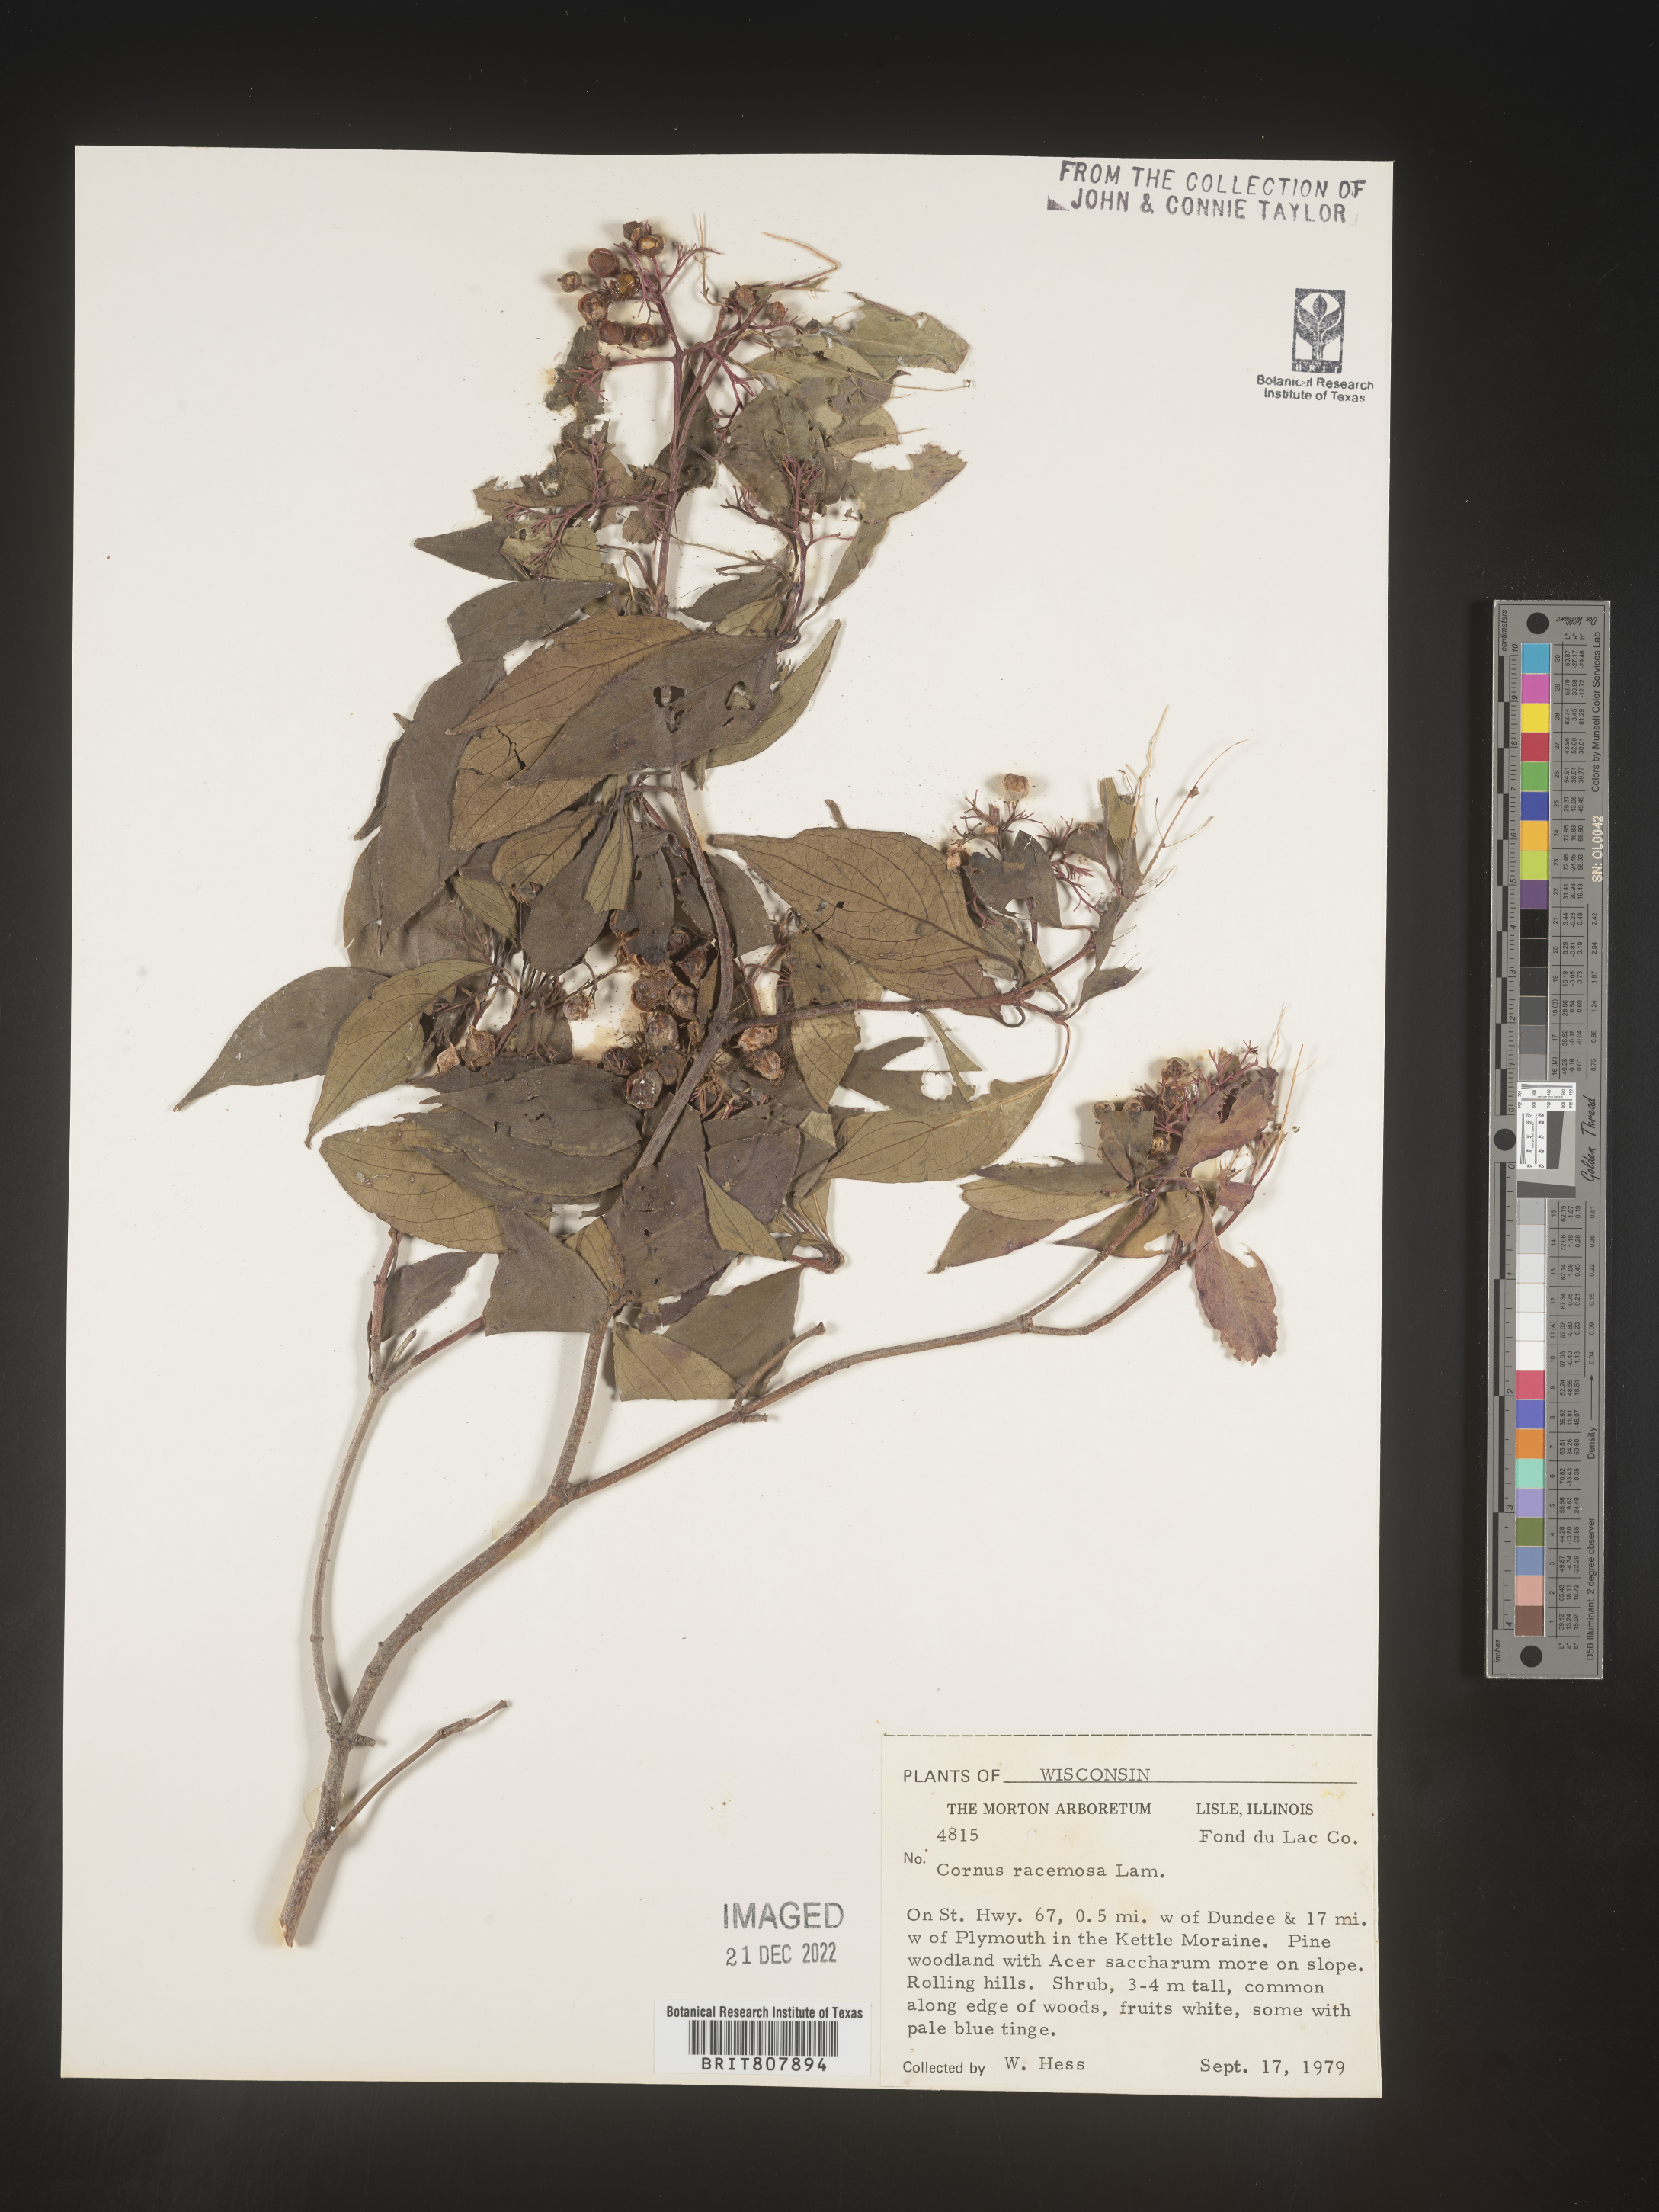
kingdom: Plantae
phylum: Tracheophyta
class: Magnoliopsida
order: Cornales
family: Cornaceae
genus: Cornus
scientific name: Cornus racemosa
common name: Panicled dogwood
